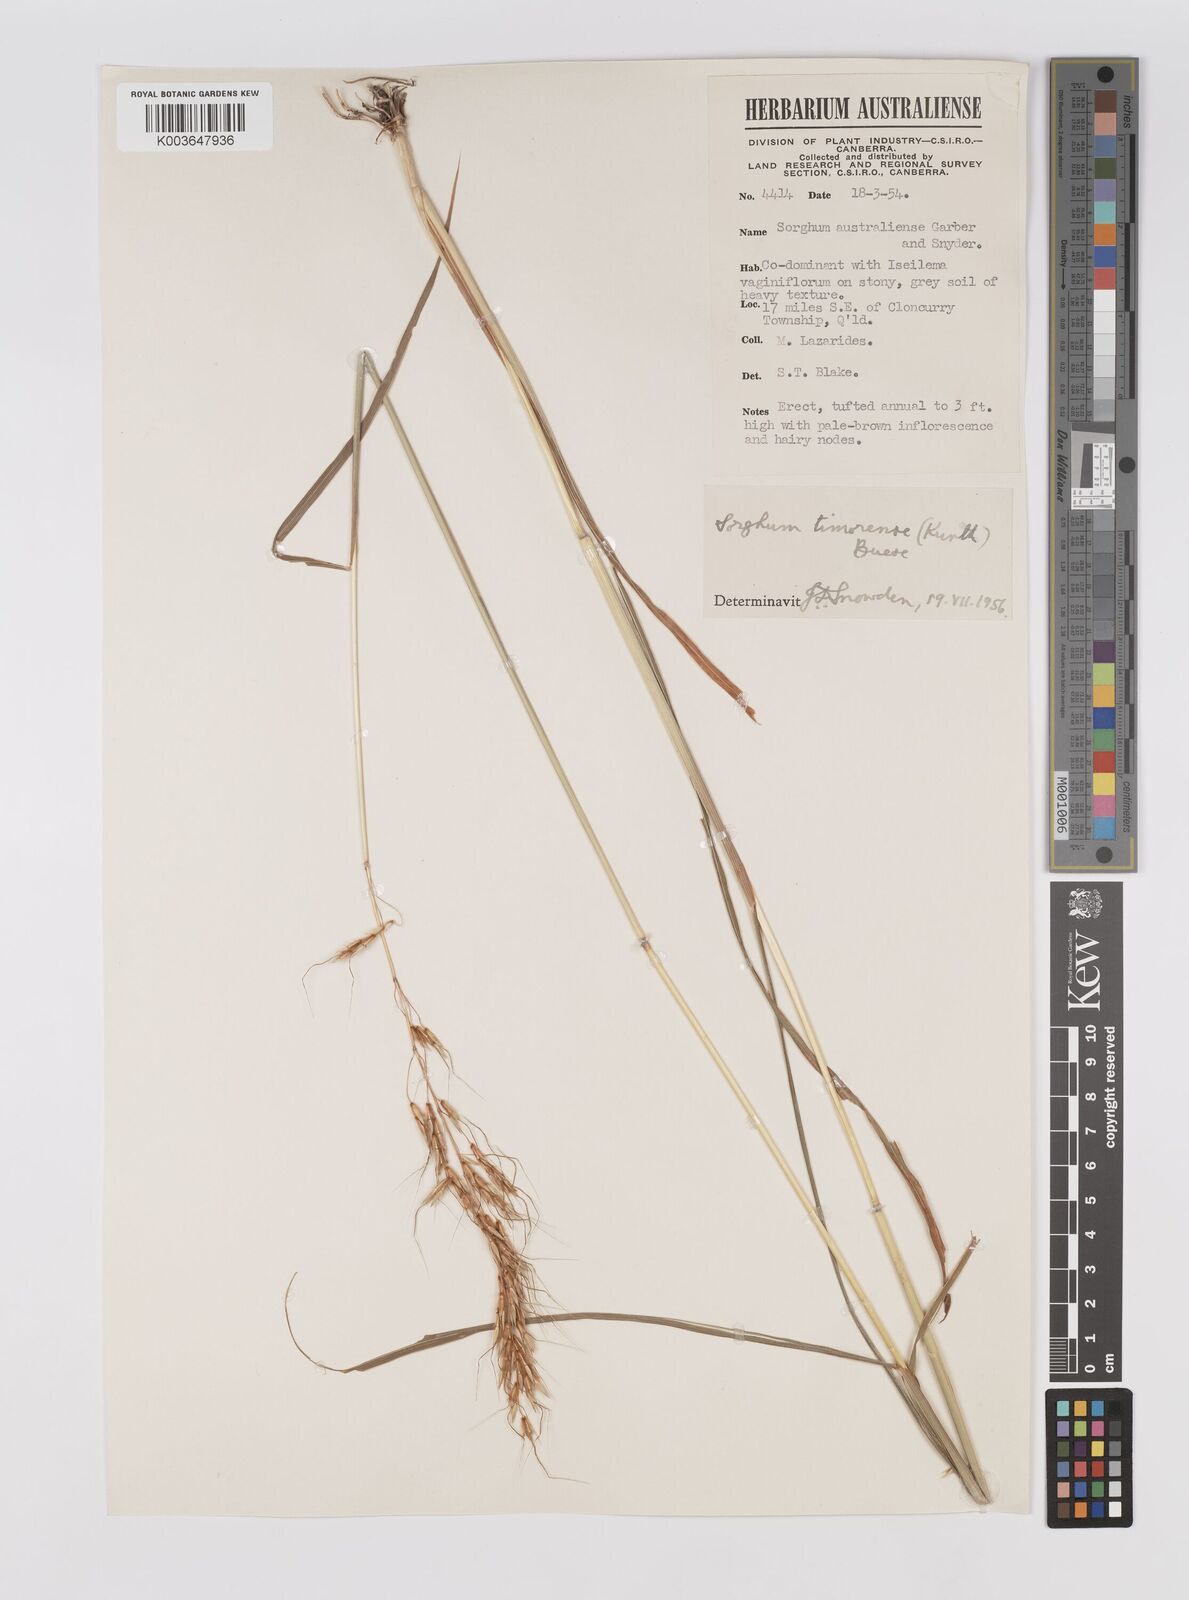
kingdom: Plantae
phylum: Tracheophyta
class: Liliopsida
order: Poales
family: Poaceae
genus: Sarga
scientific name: Sarga timorensis
